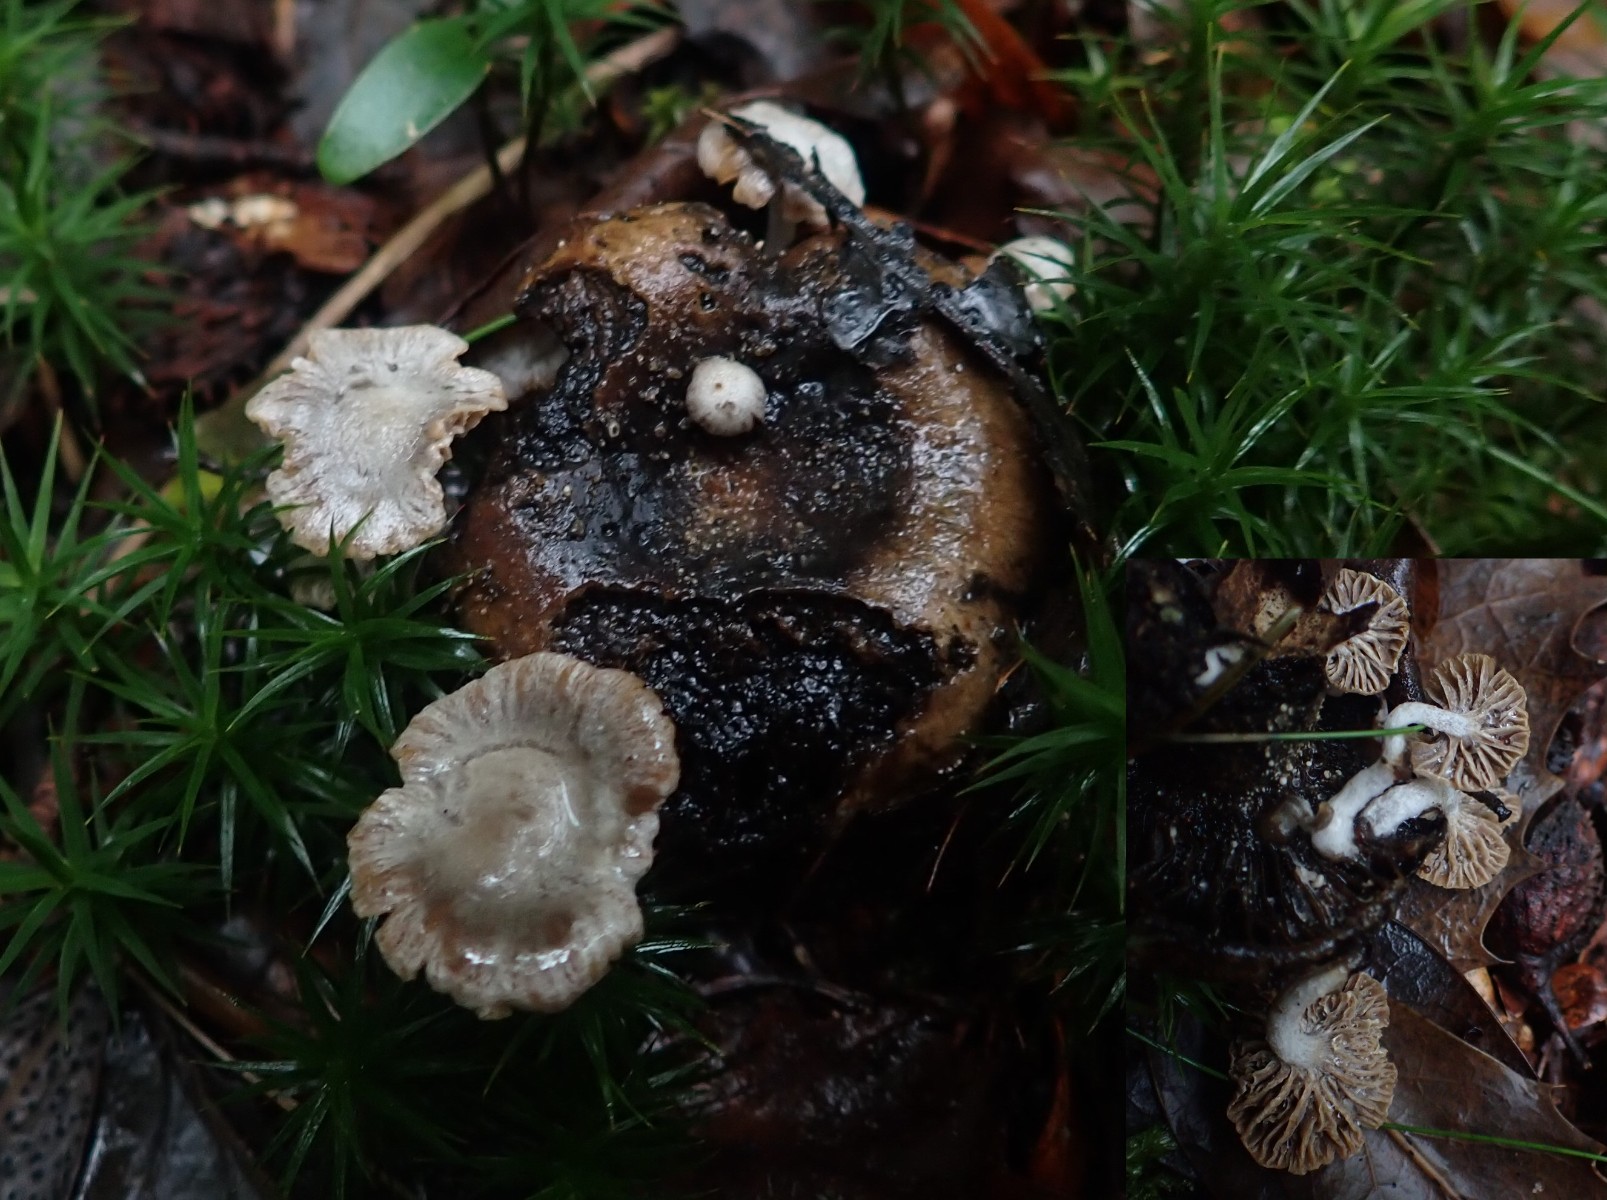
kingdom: Fungi
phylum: Basidiomycota
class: Agaricomycetes
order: Agaricales
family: Lyophyllaceae
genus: Asterophora
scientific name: Asterophora parasitica
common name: grå snyltehat
